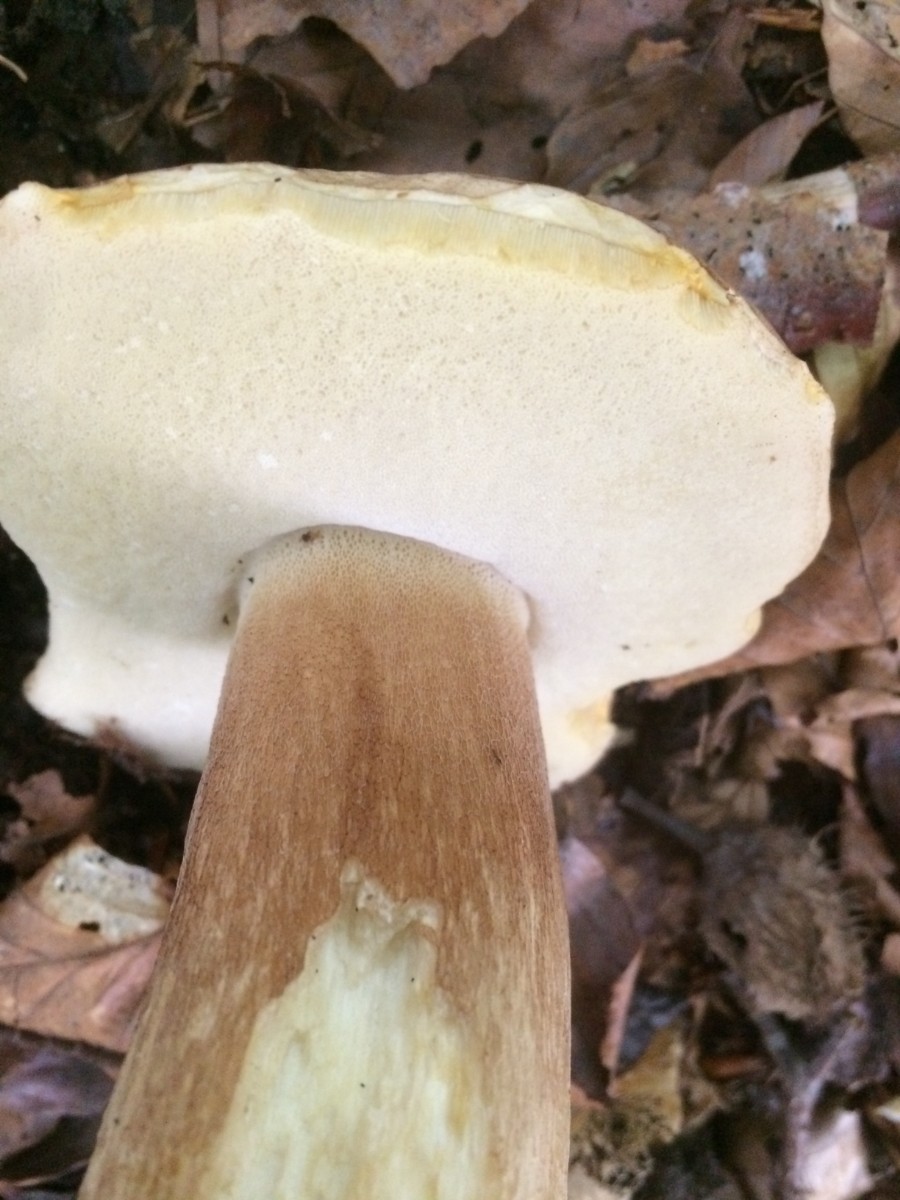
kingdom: Fungi
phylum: Basidiomycota
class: Agaricomycetes
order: Boletales
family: Boletaceae
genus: Boletus
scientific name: Boletus reticulatus
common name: sommer-rørhat
